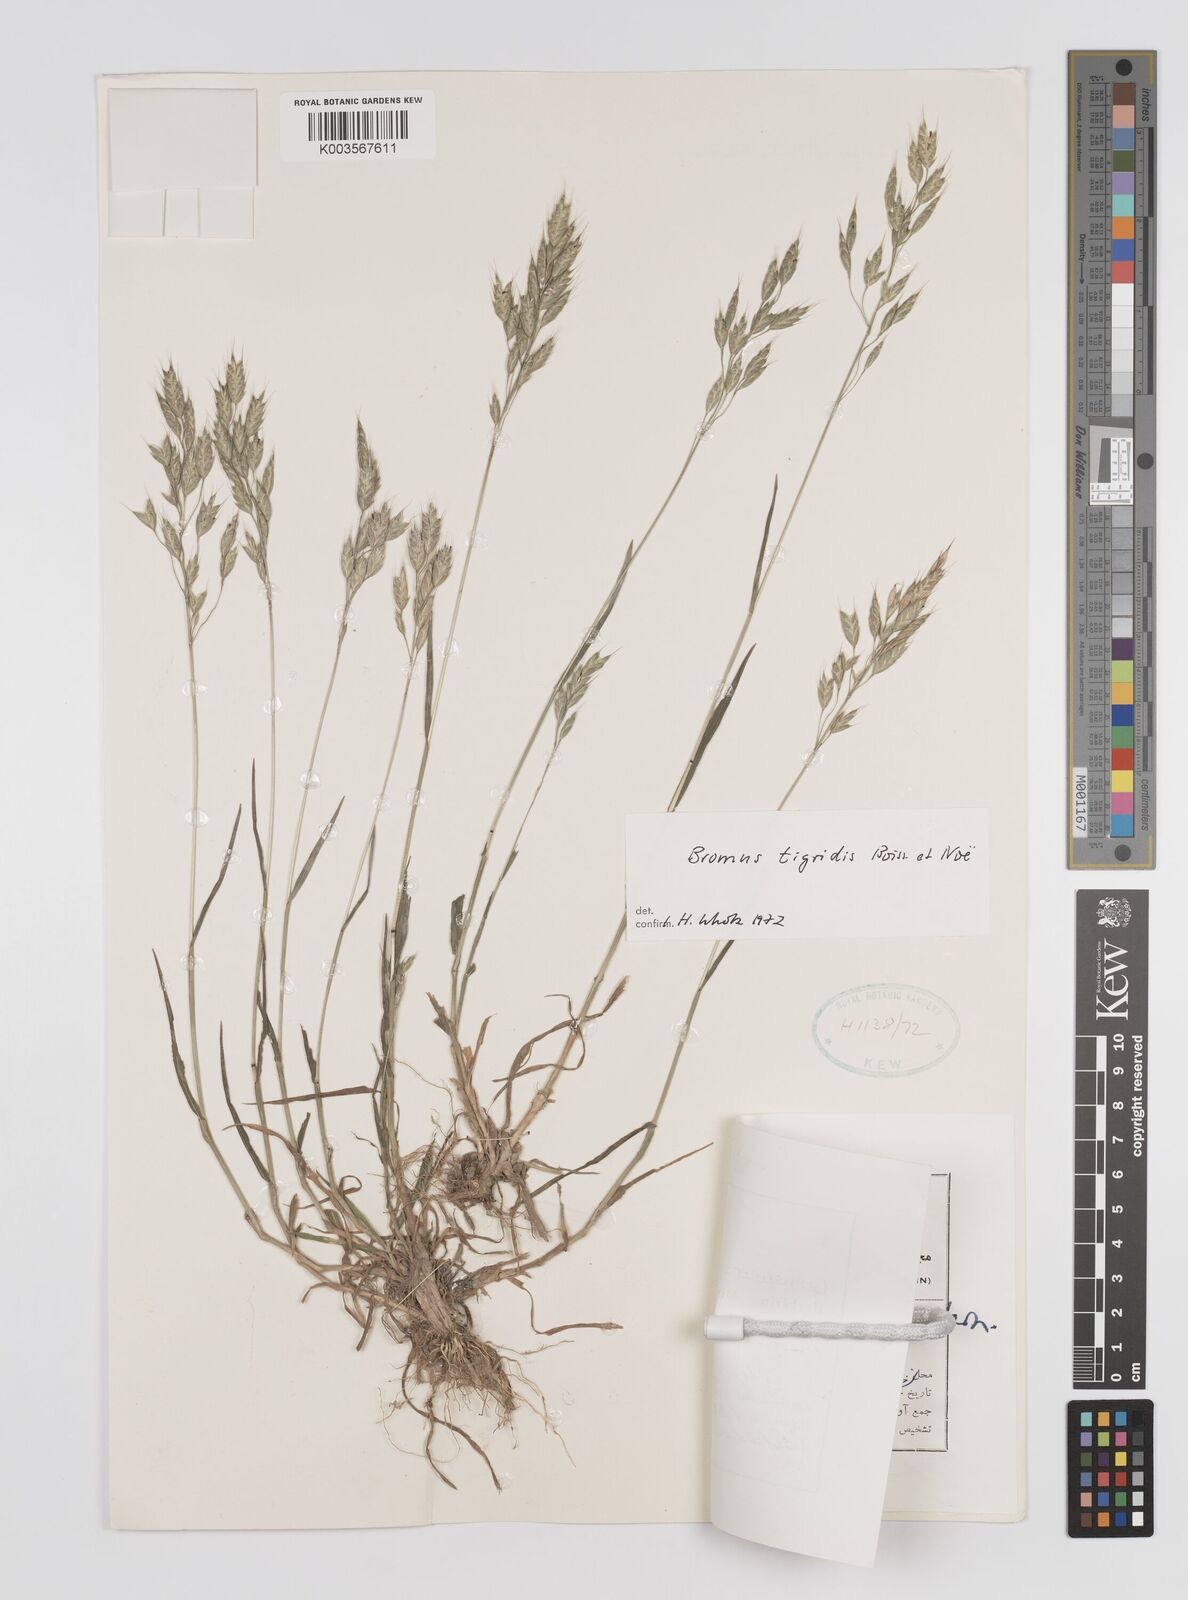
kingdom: Plantae
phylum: Tracheophyta
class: Liliopsida
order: Poales
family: Poaceae
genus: Bromus
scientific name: Bromus brachystachys
